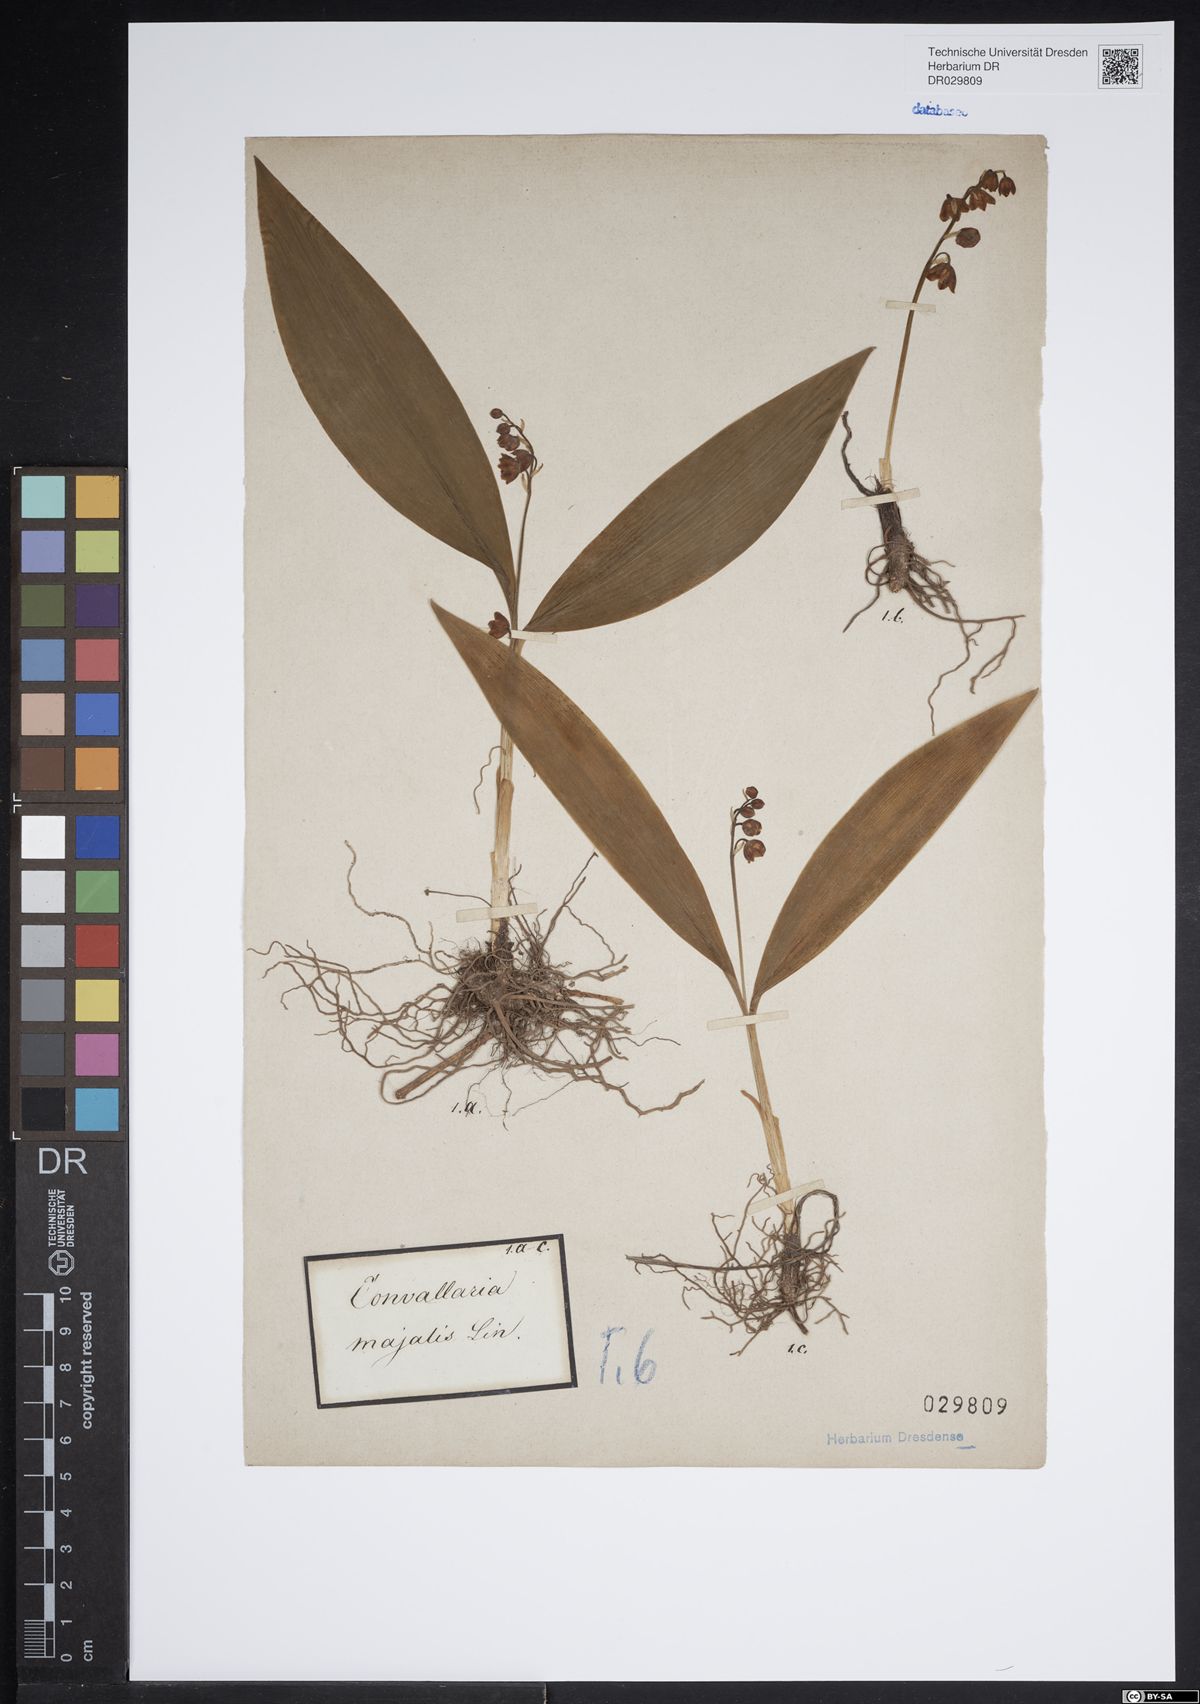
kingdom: Plantae
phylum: Tracheophyta
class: Liliopsida
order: Asparagales
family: Asparagaceae
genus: Convallaria
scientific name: Convallaria majalis
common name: Lily-of-the-valley
